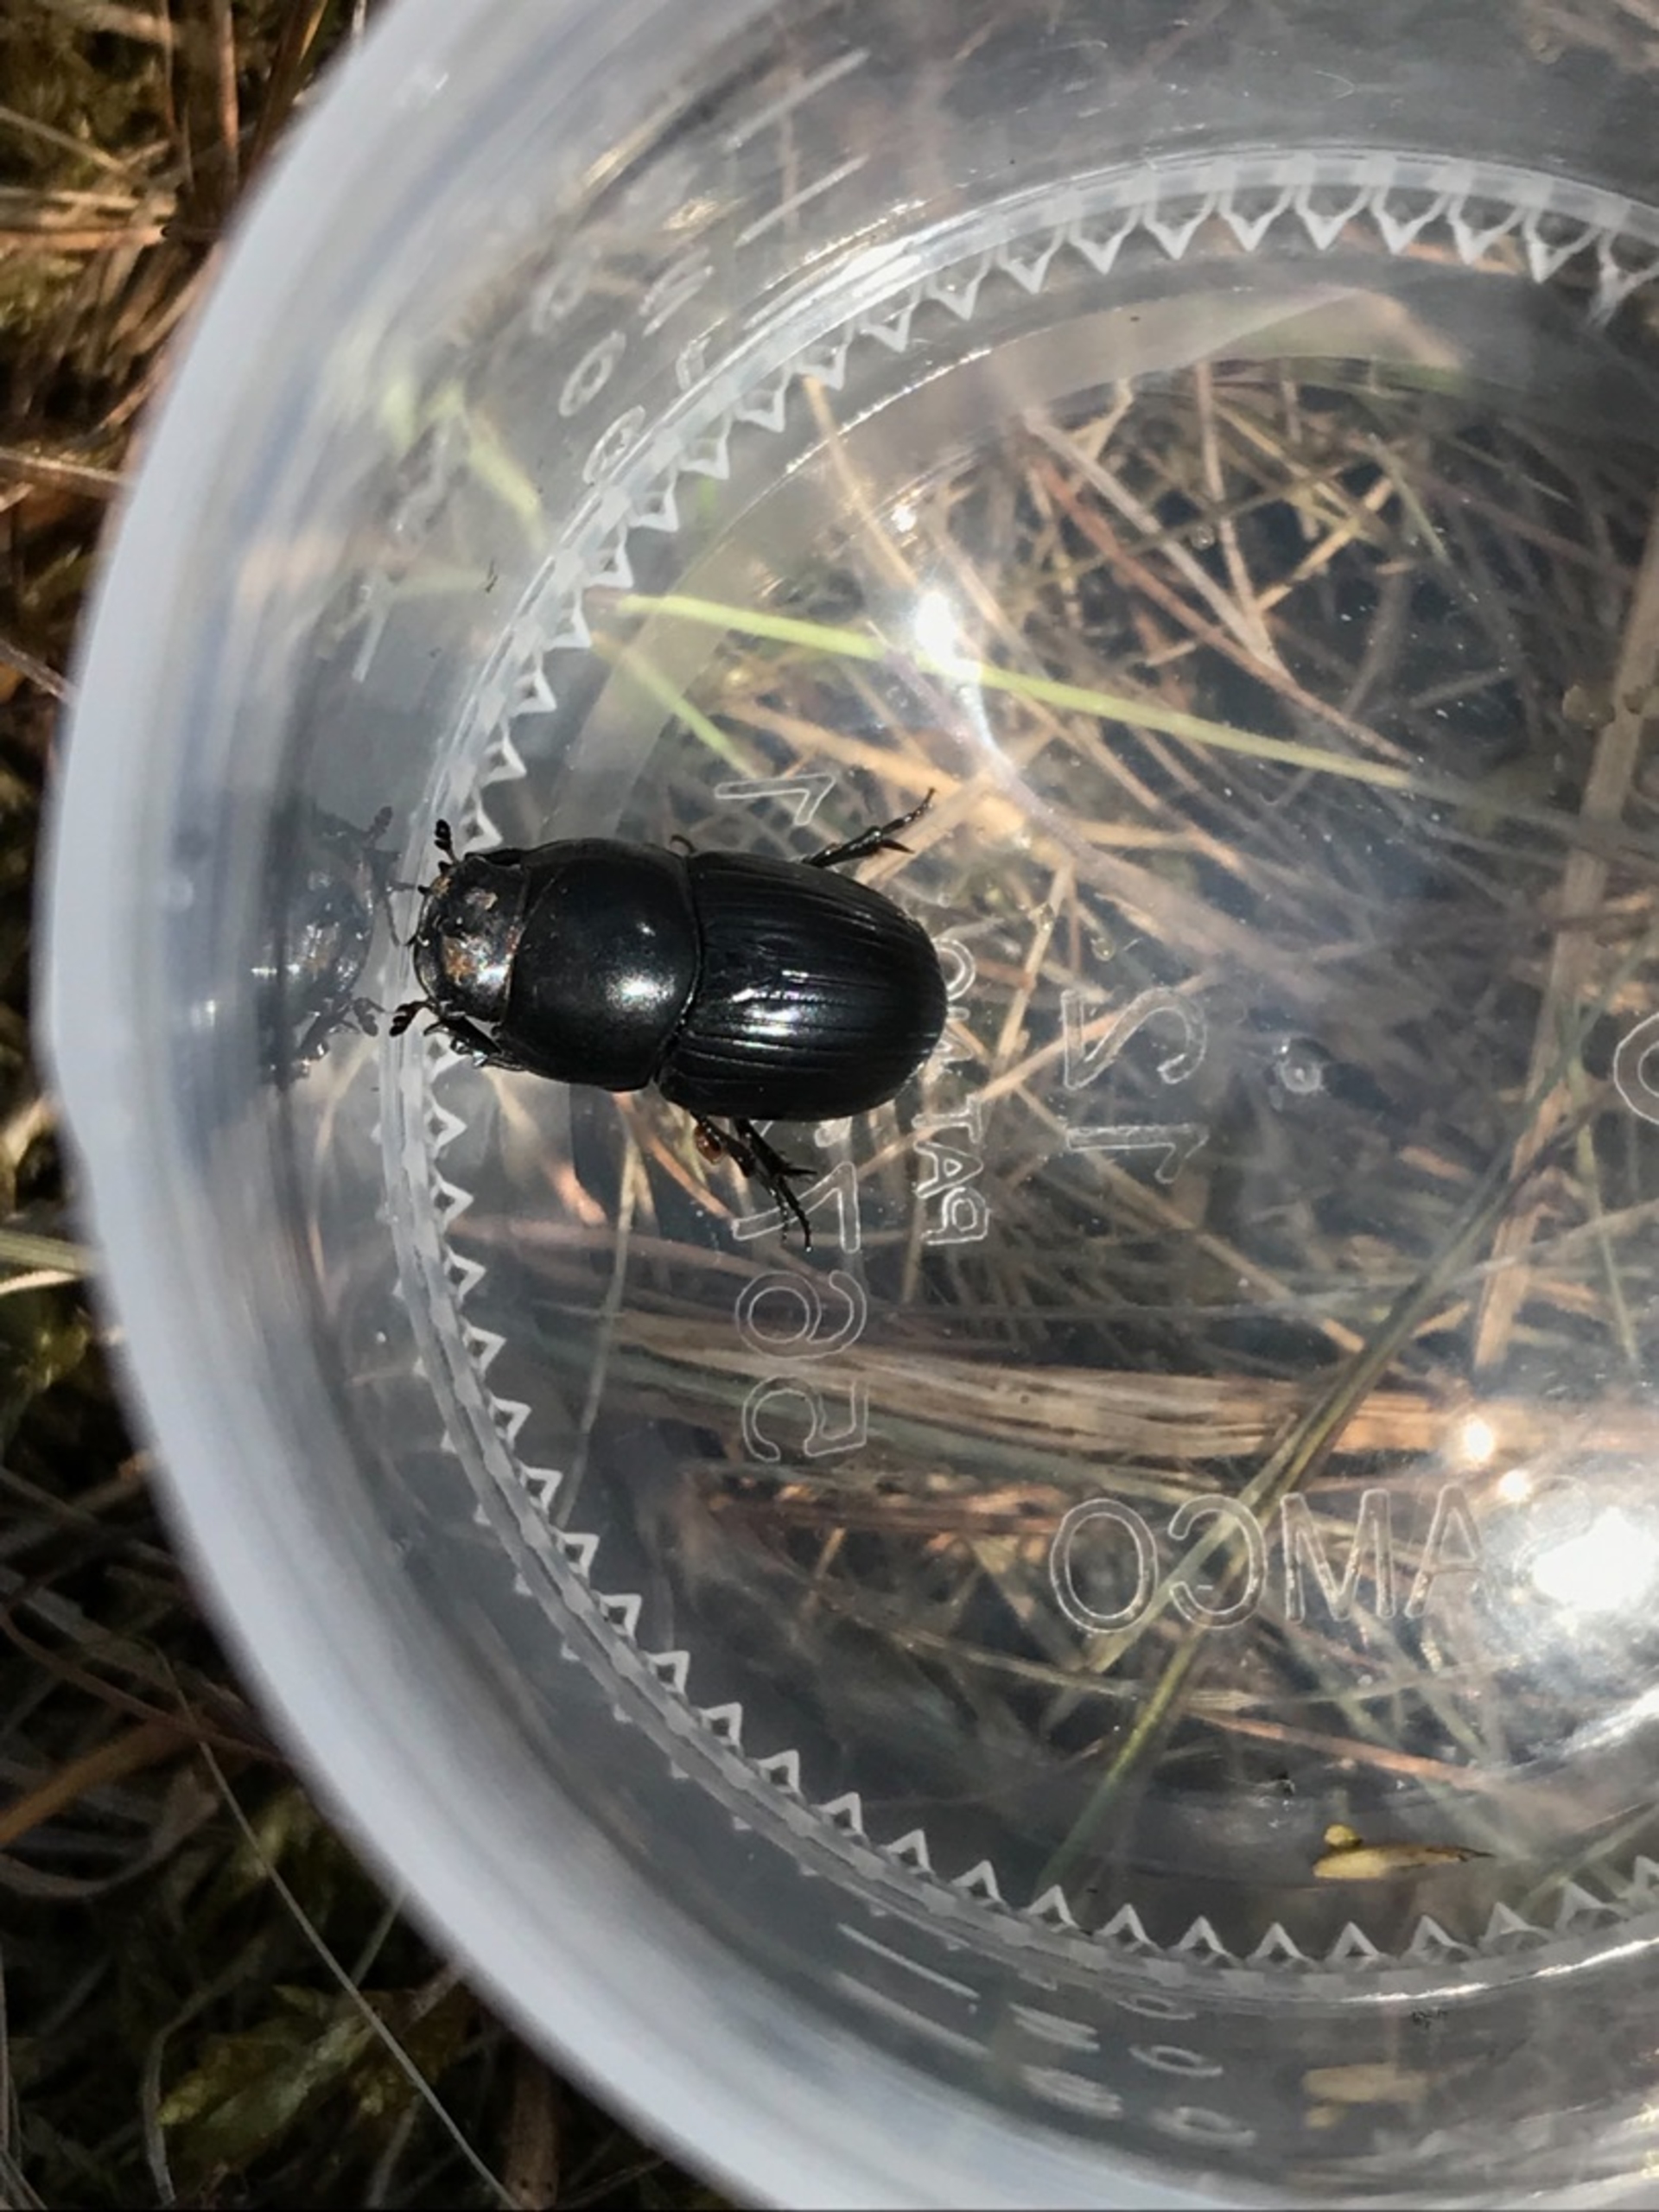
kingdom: Animalia
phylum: Arthropoda
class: Insecta
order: Coleoptera
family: Scarabaeidae
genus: Teuchestes
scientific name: Teuchestes fossor
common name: Stor møgbille
